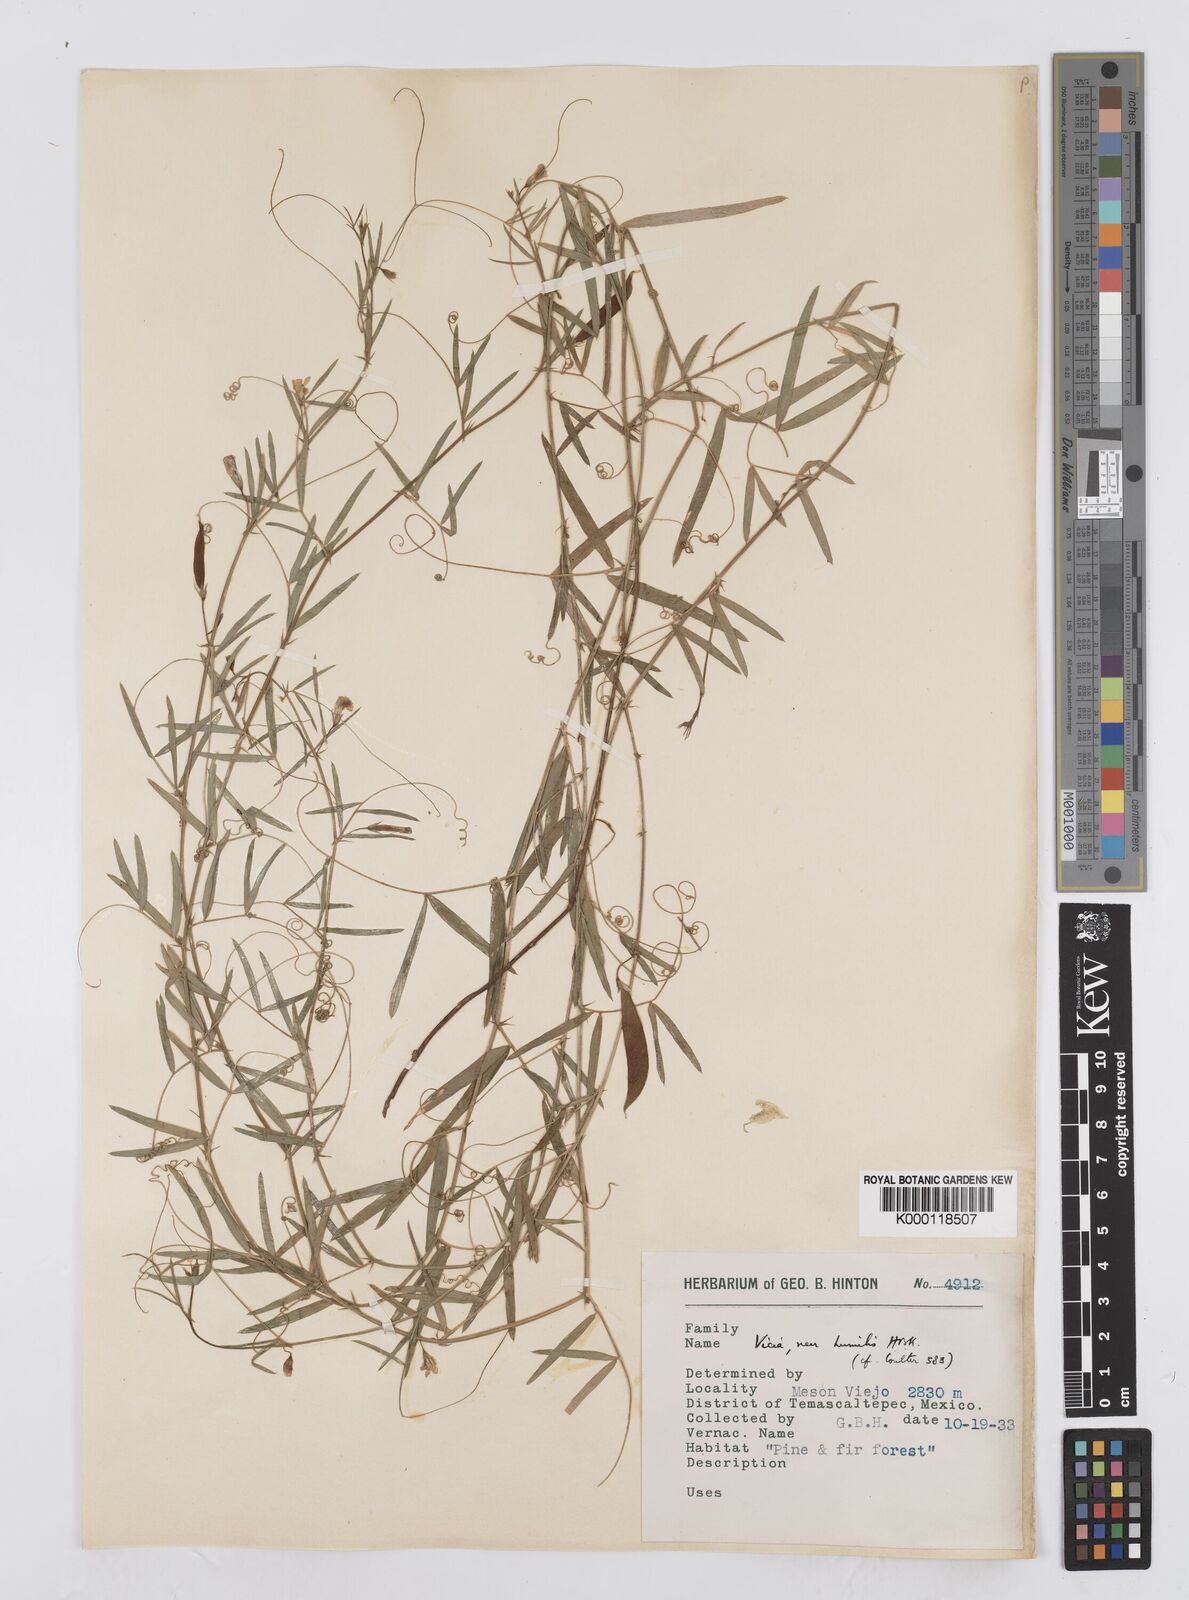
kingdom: Plantae
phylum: Tracheophyta
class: Magnoliopsida
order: Fabales
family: Fabaceae
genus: Vicia
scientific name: Vicia humilis
